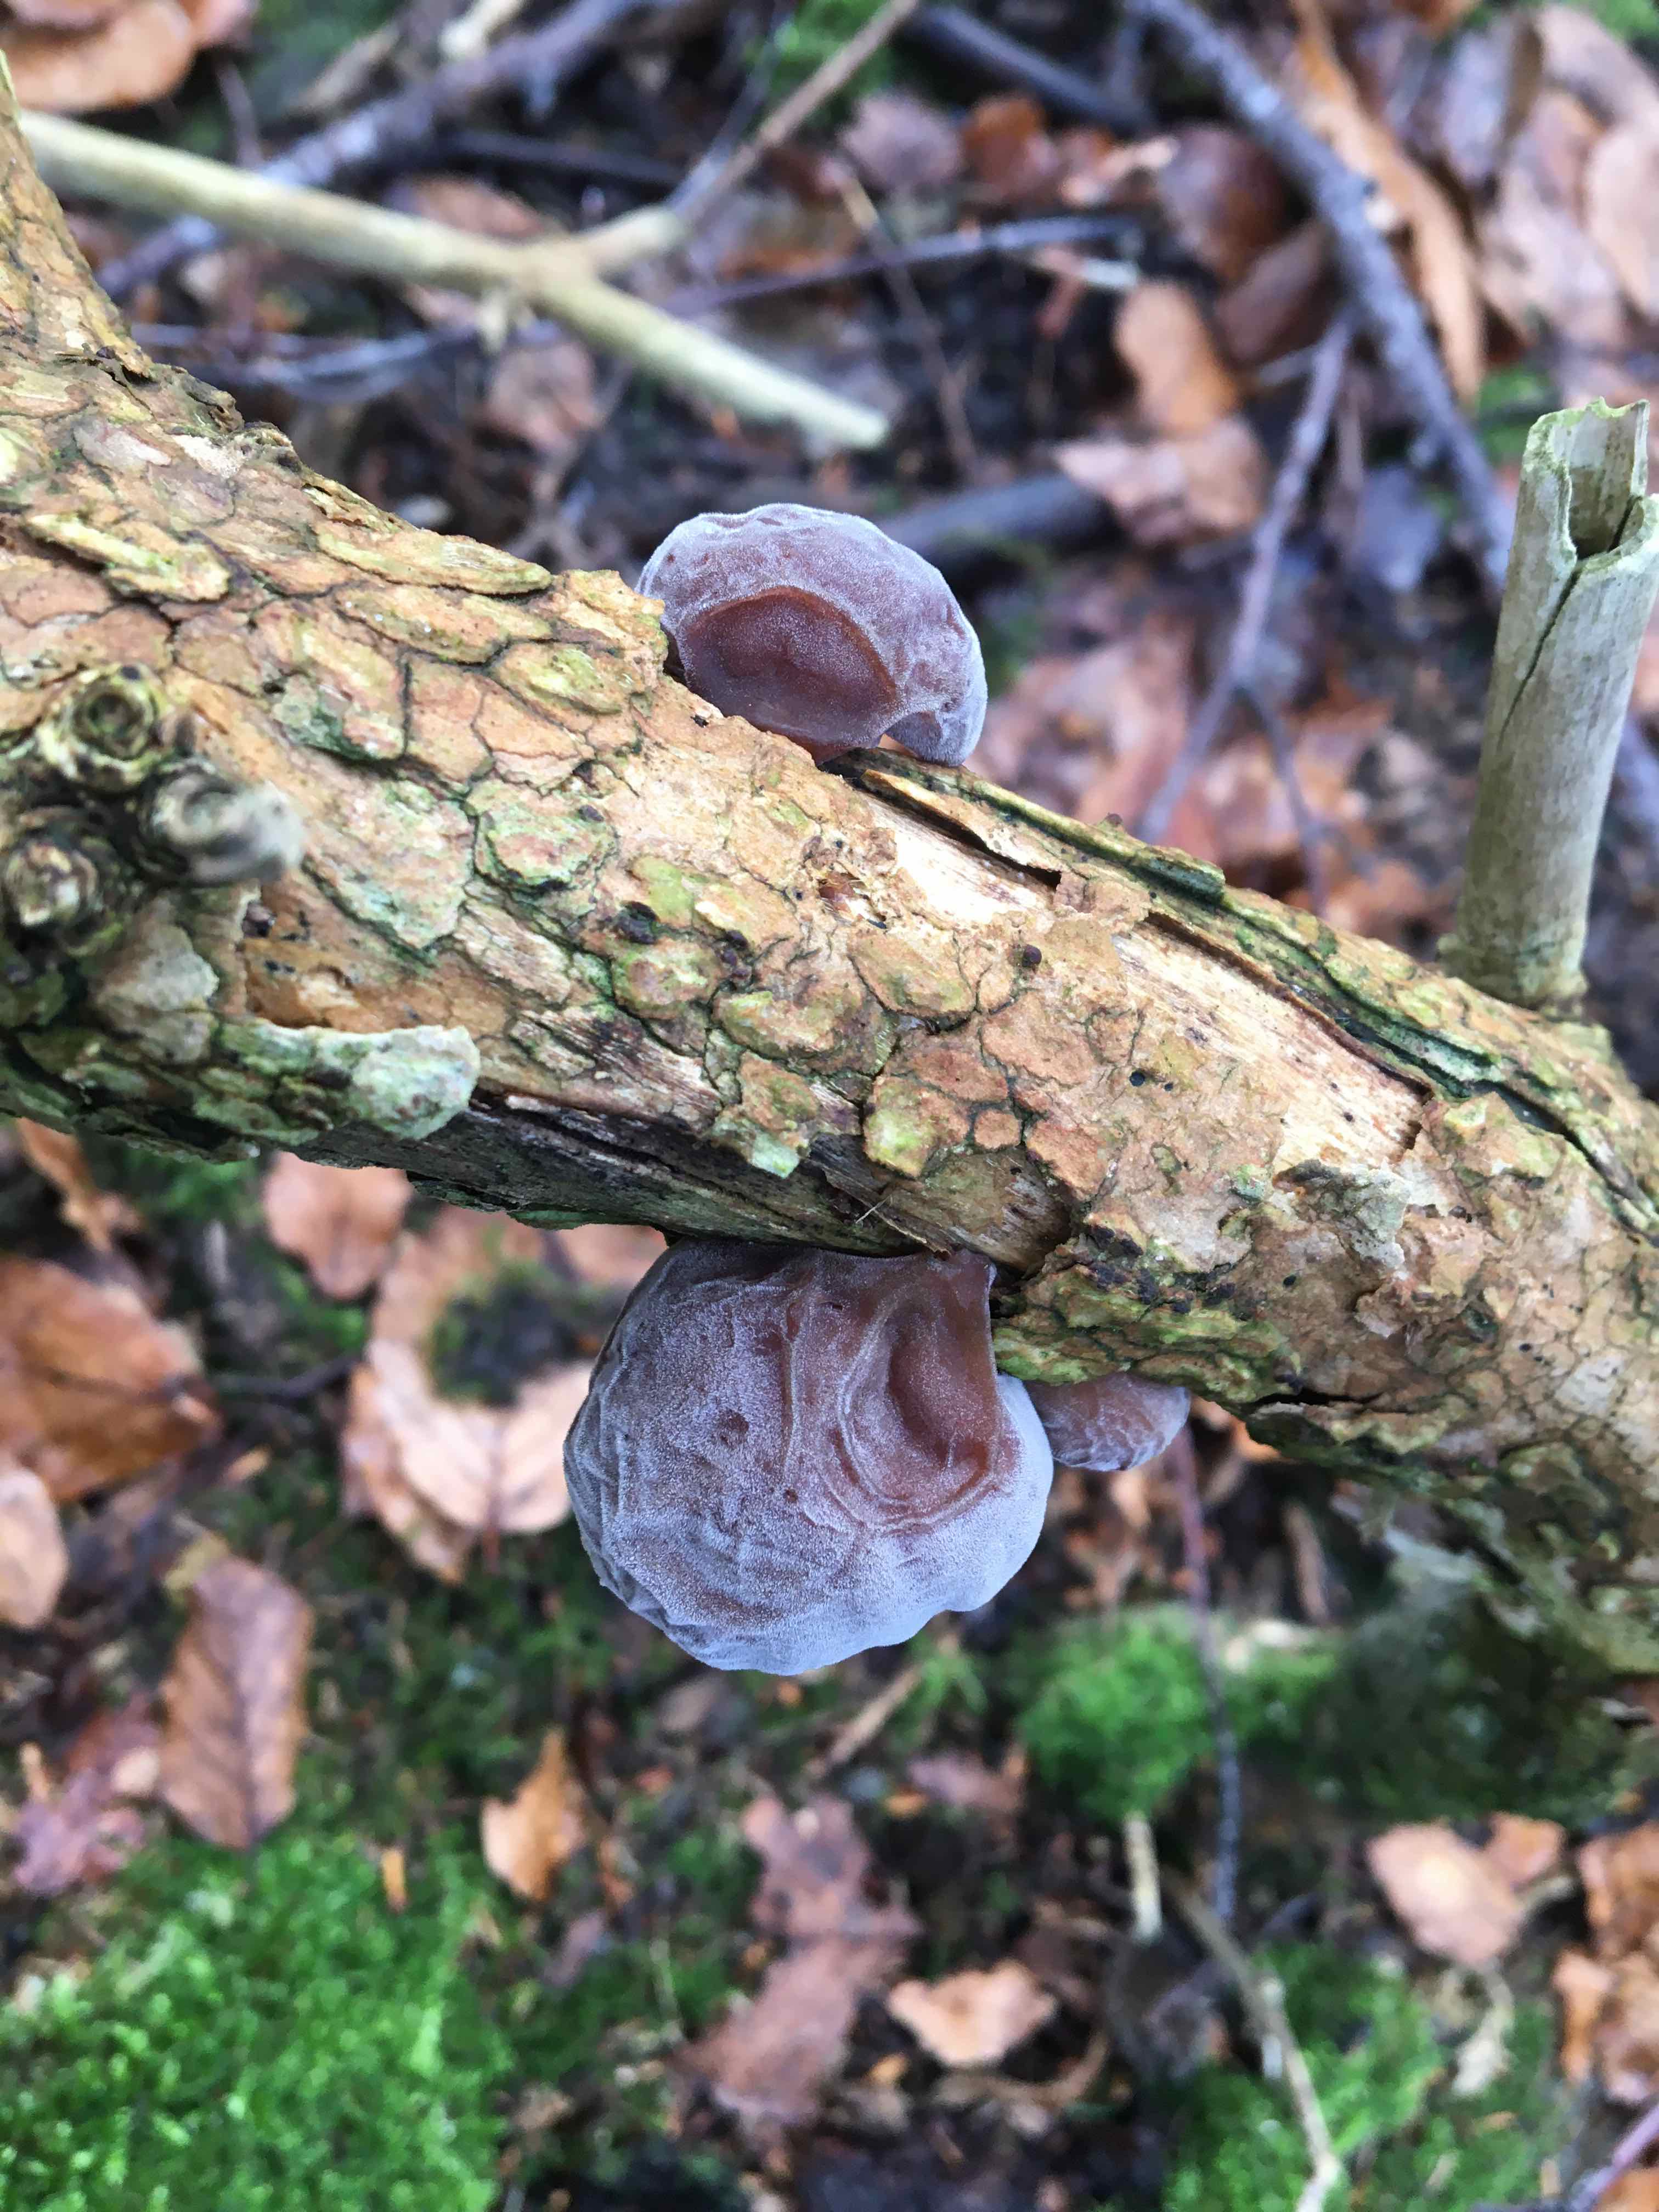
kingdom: Fungi
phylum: Basidiomycota
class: Agaricomycetes
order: Auriculariales
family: Auriculariaceae
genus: Auricularia
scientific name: Auricularia auricula-judae
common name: almindelig judasøre
